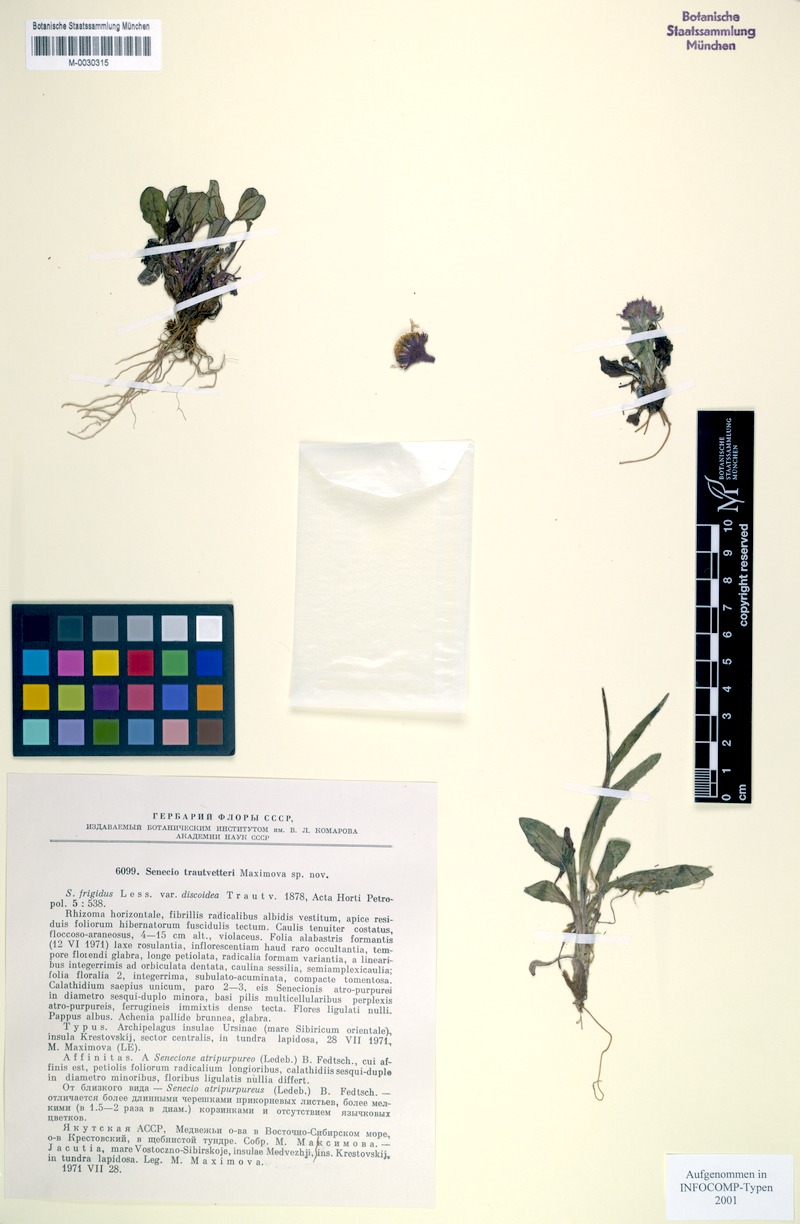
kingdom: Plantae
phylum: Tracheophyta
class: Magnoliopsida
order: Asterales
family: Asteraceae
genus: Tephroseris
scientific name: Tephroseris integrifolia
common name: Field fleawort
